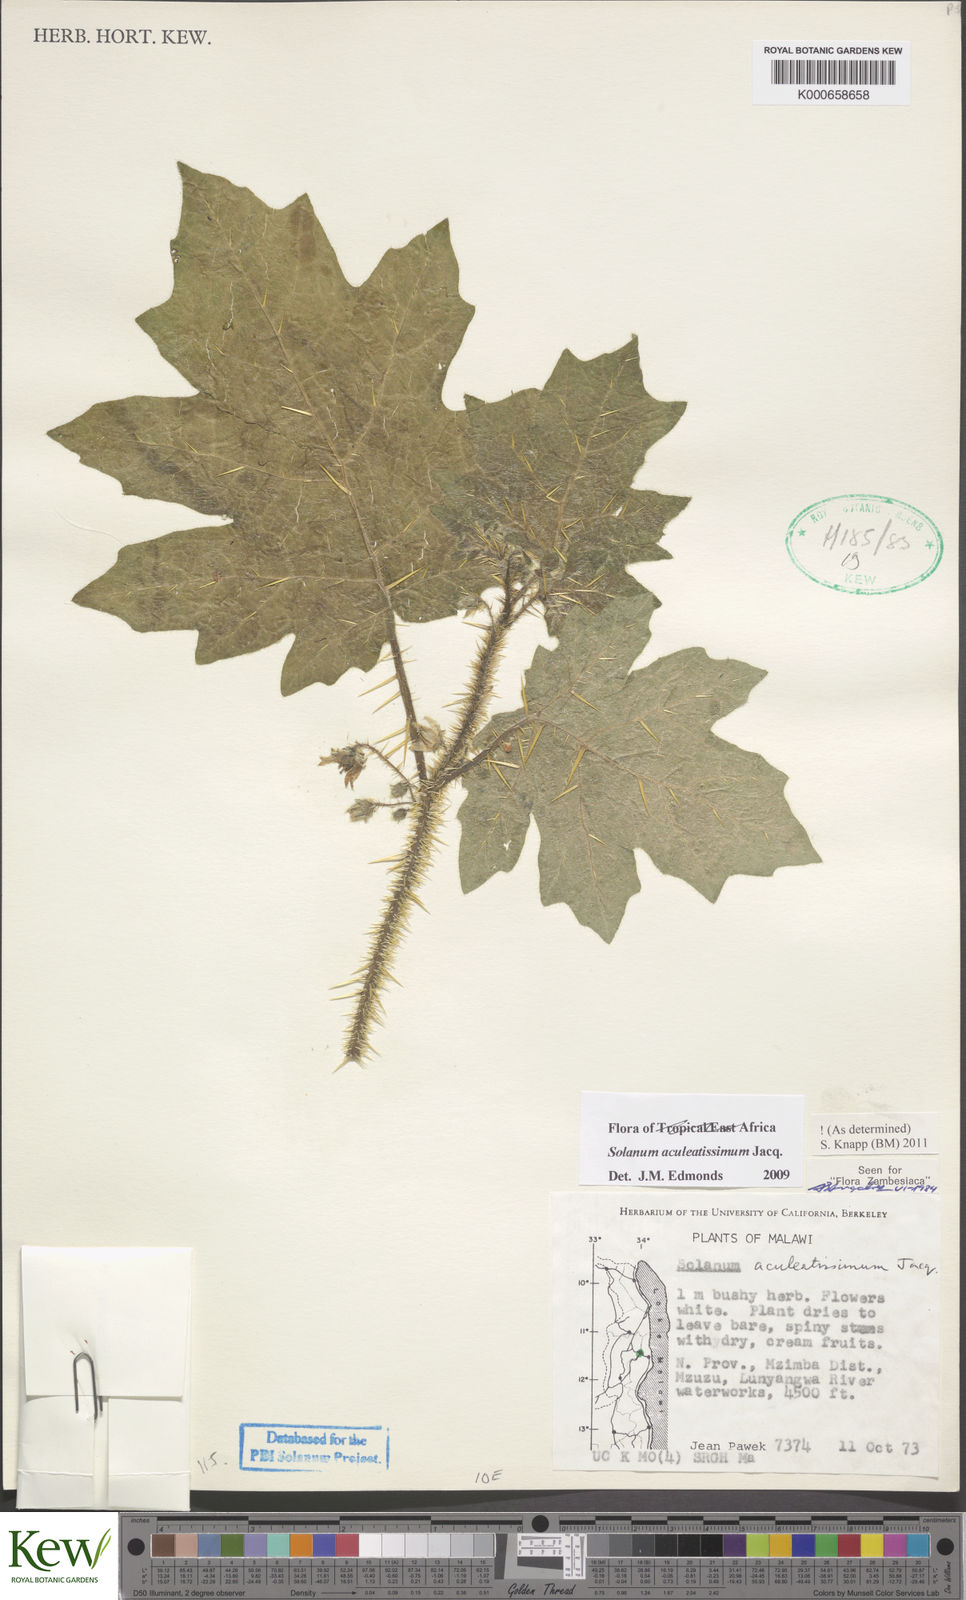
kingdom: Plantae
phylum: Tracheophyta
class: Magnoliopsida
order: Solanales
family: Solanaceae
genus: Solanum
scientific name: Solanum aculeatissimum
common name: Dutch eggplant
